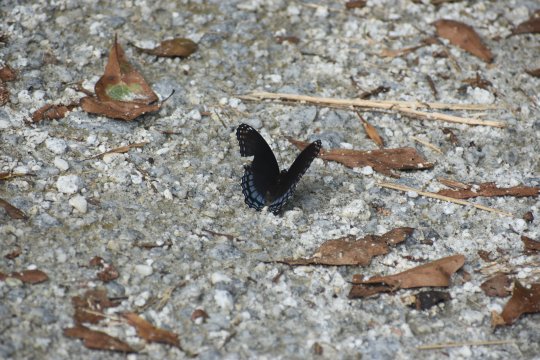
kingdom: Animalia
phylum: Arthropoda
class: Insecta
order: Lepidoptera
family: Nymphalidae
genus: Limenitis
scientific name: Limenitis arthemis
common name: Red-spotted Admiral
